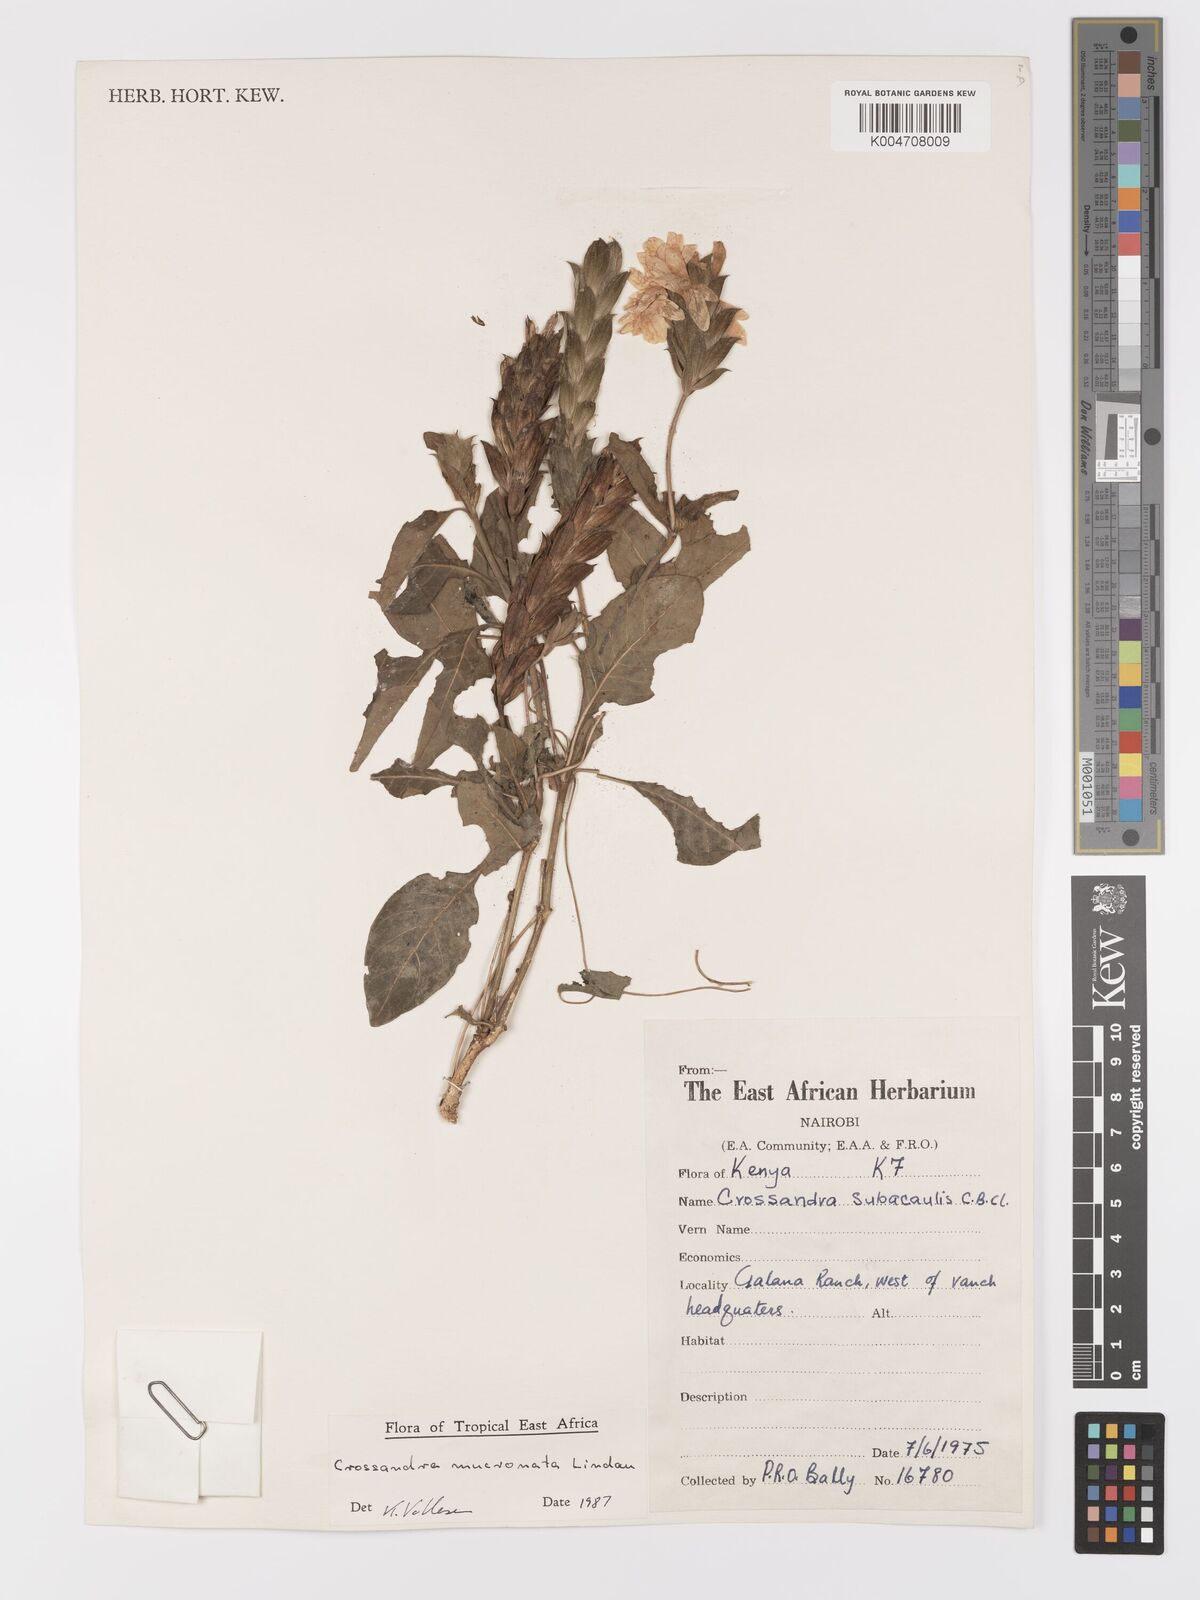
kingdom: Plantae
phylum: Tracheophyta
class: Magnoliopsida
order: Lamiales
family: Acanthaceae
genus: Crossandra
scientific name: Crossandra mucronata
